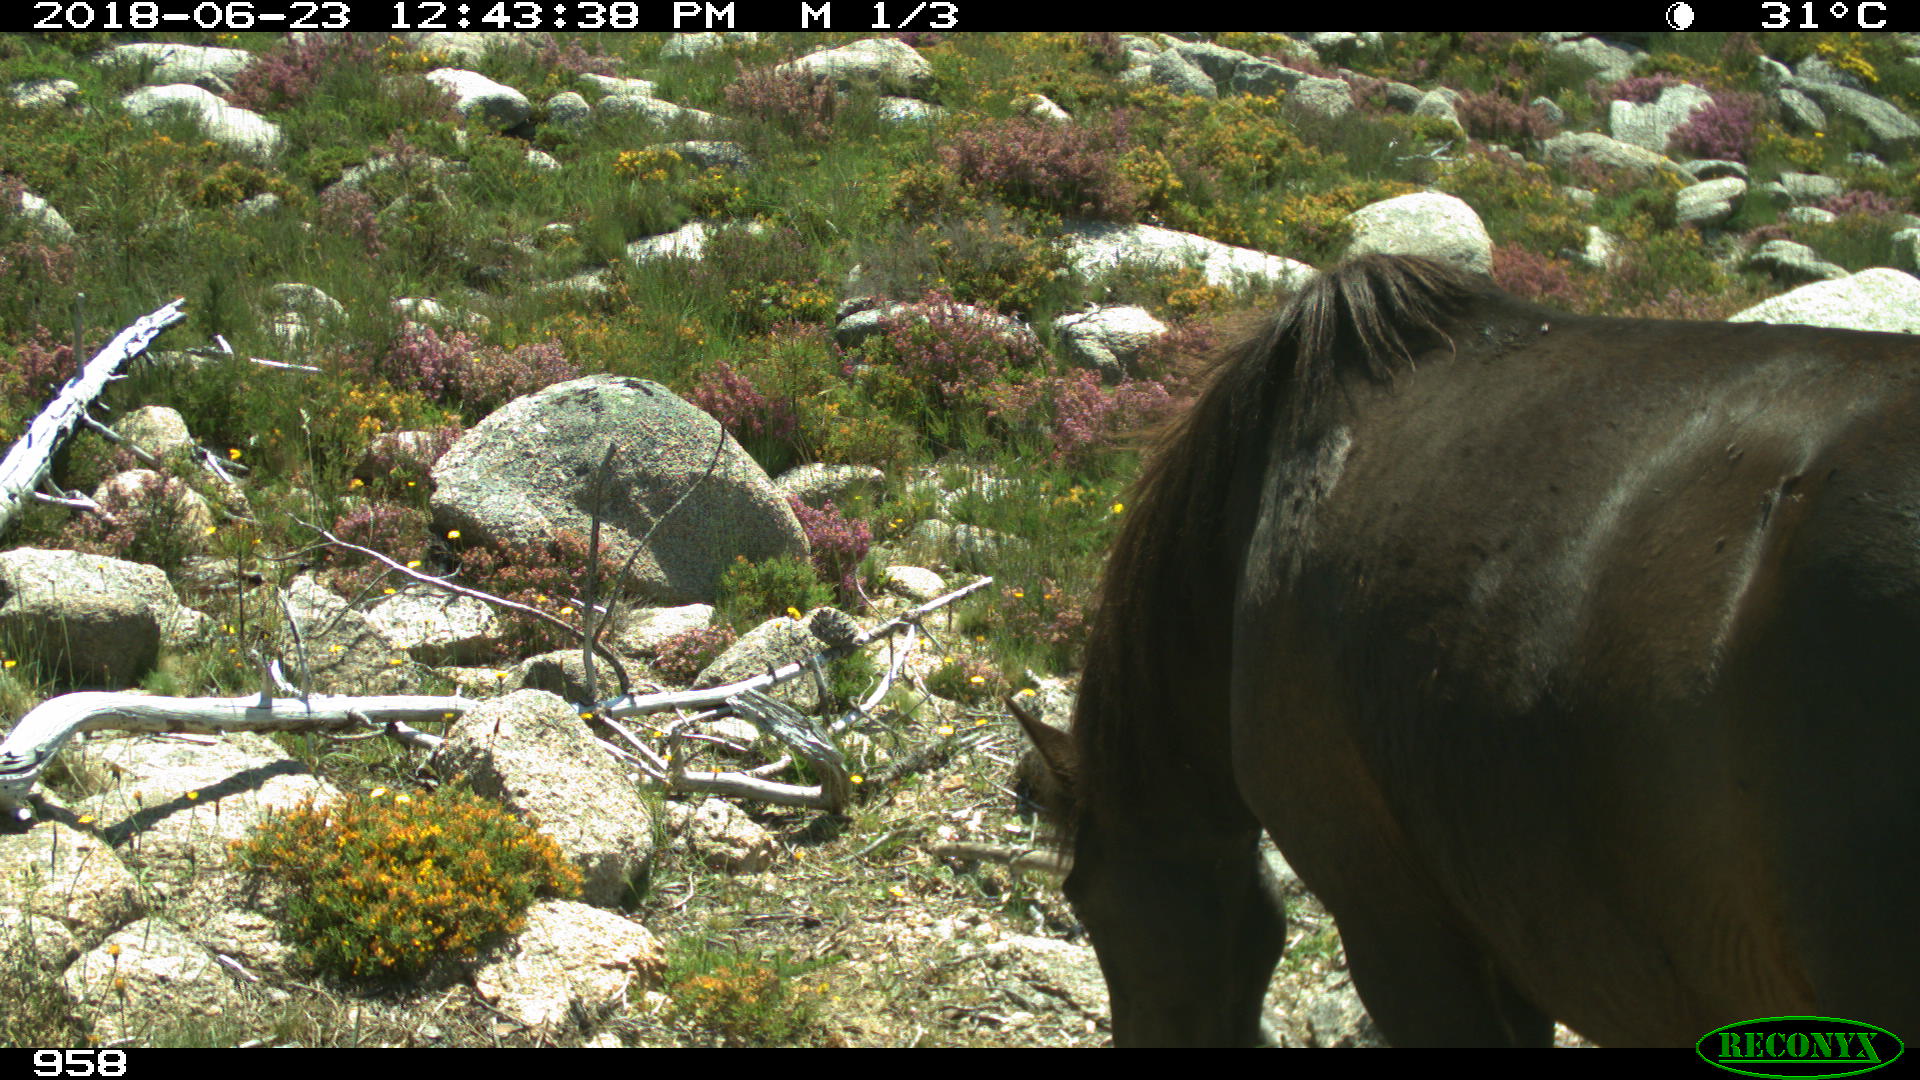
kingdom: Animalia
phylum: Chordata
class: Mammalia
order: Perissodactyla
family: Equidae
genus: Equus
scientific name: Equus caballus
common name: Horse
